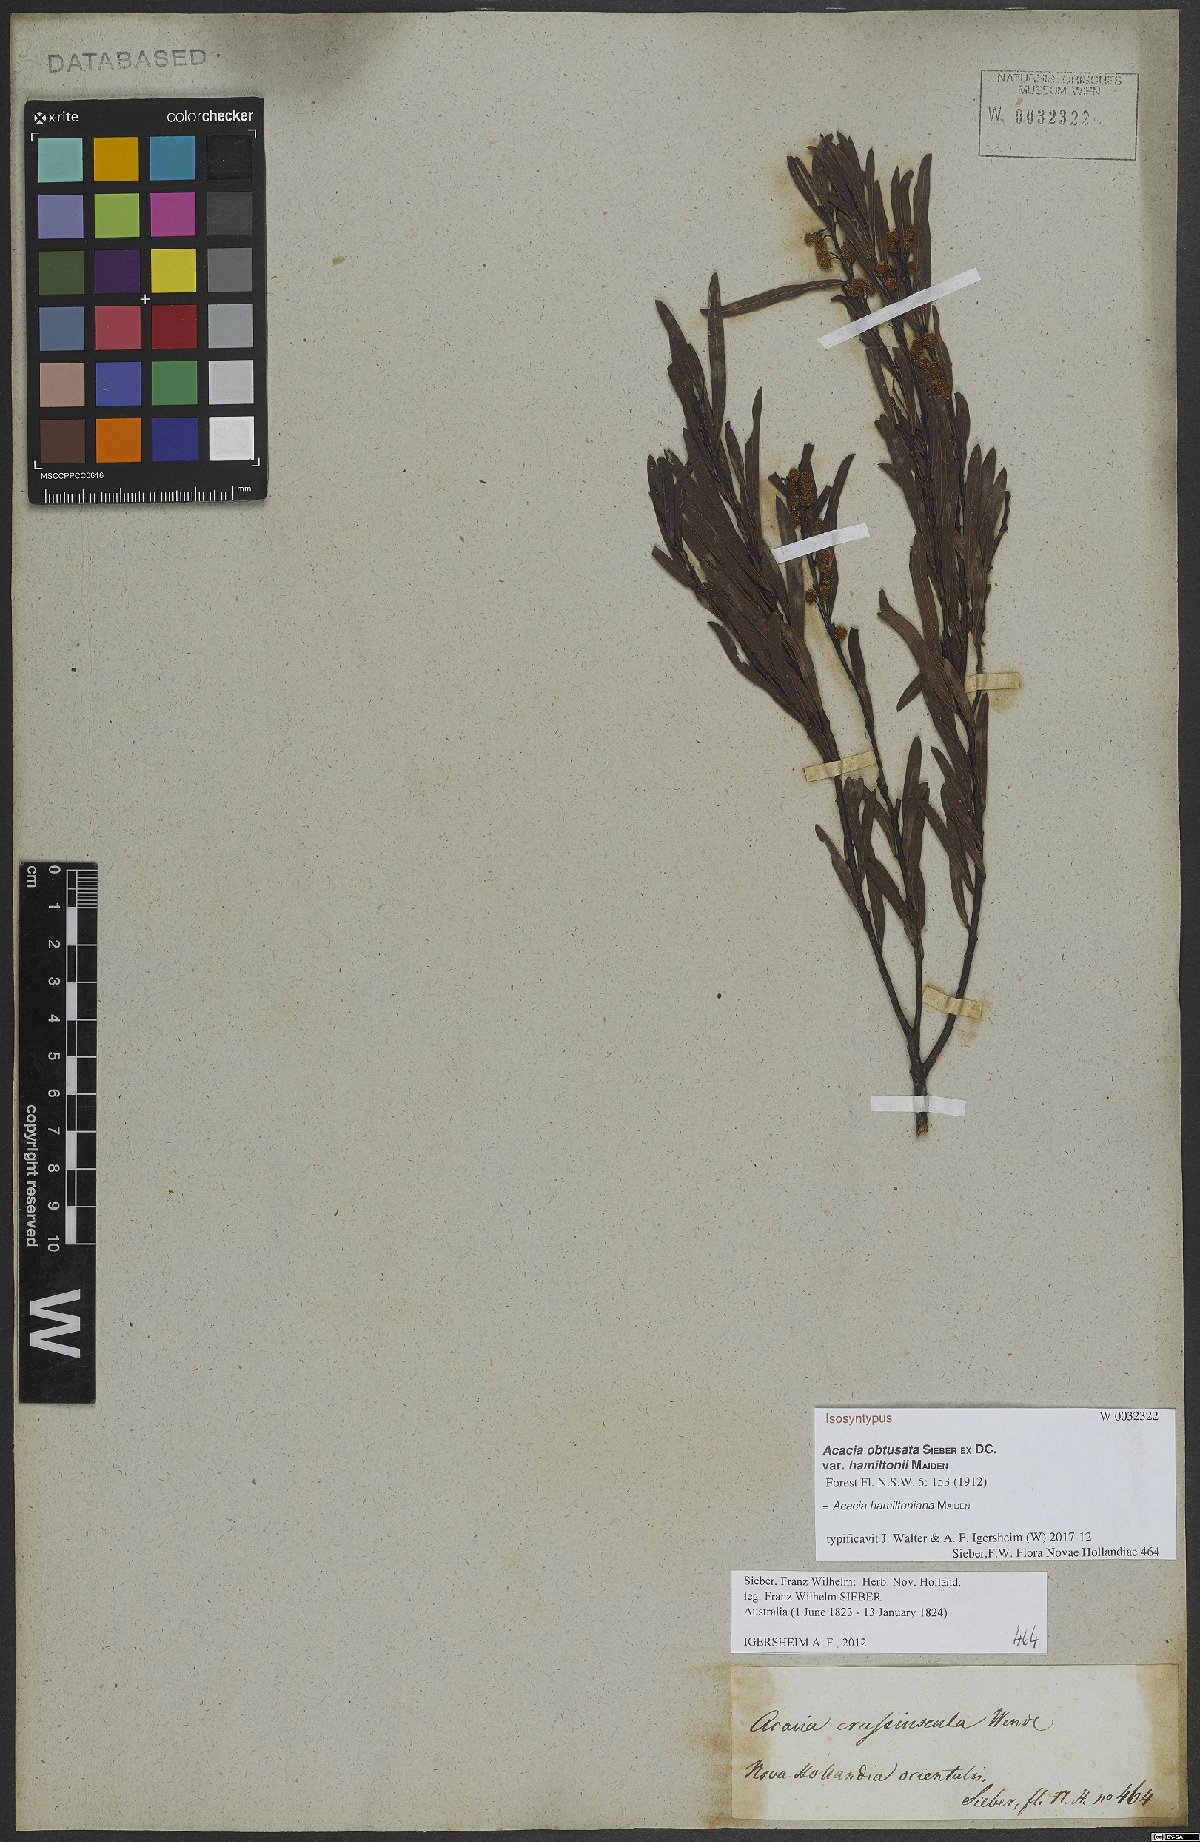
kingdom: Plantae
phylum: Tracheophyta
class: Magnoliopsida
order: Fabales
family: Fabaceae
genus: Acacia
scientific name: Acacia hamiltoniana
